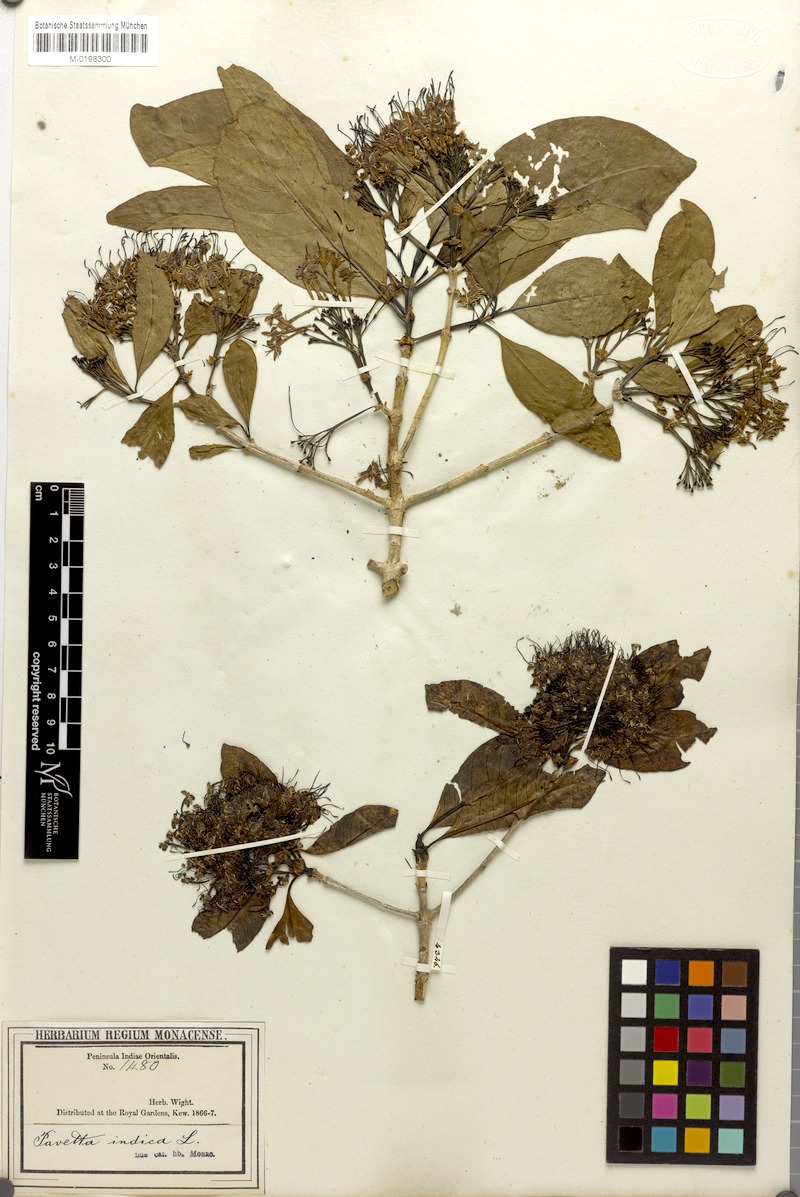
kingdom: Plantae
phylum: Tracheophyta
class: Magnoliopsida
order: Gentianales
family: Rubiaceae
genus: Pavetta
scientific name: Pavetta wightii
